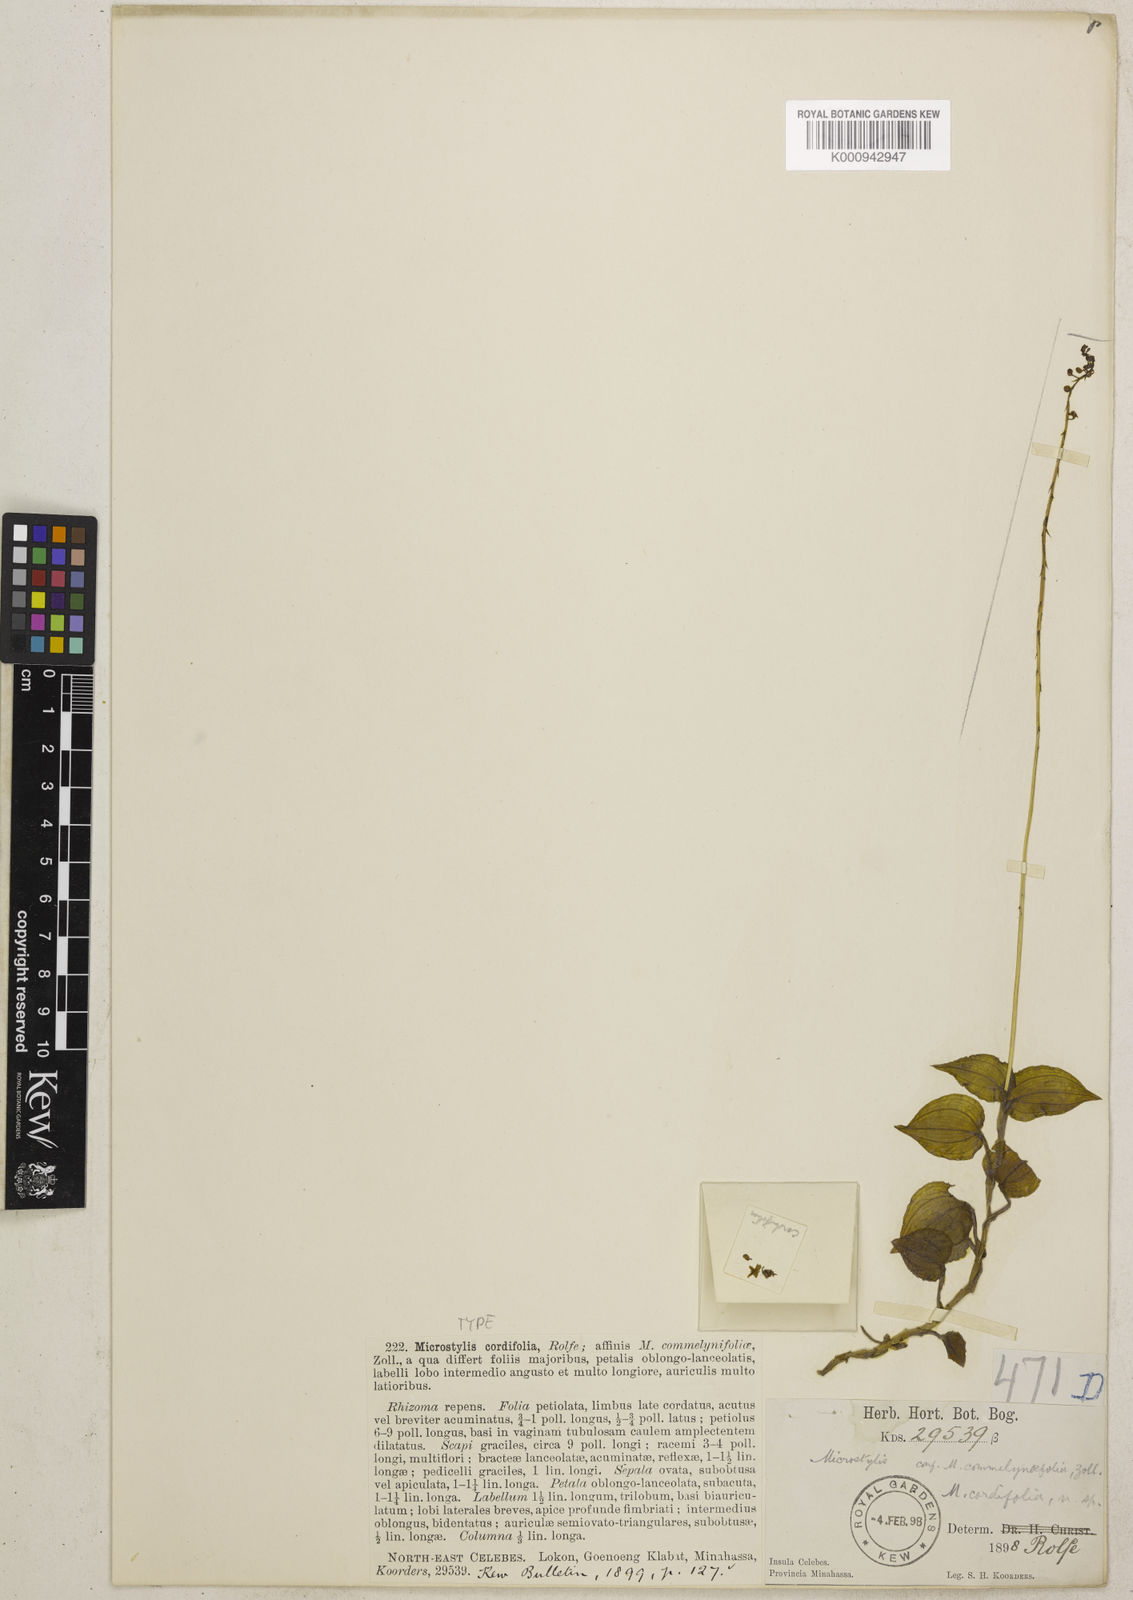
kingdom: Plantae
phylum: Tracheophyta
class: Liliopsida
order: Asparagales
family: Orchidaceae
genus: Crepidium
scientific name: Crepidium repens
